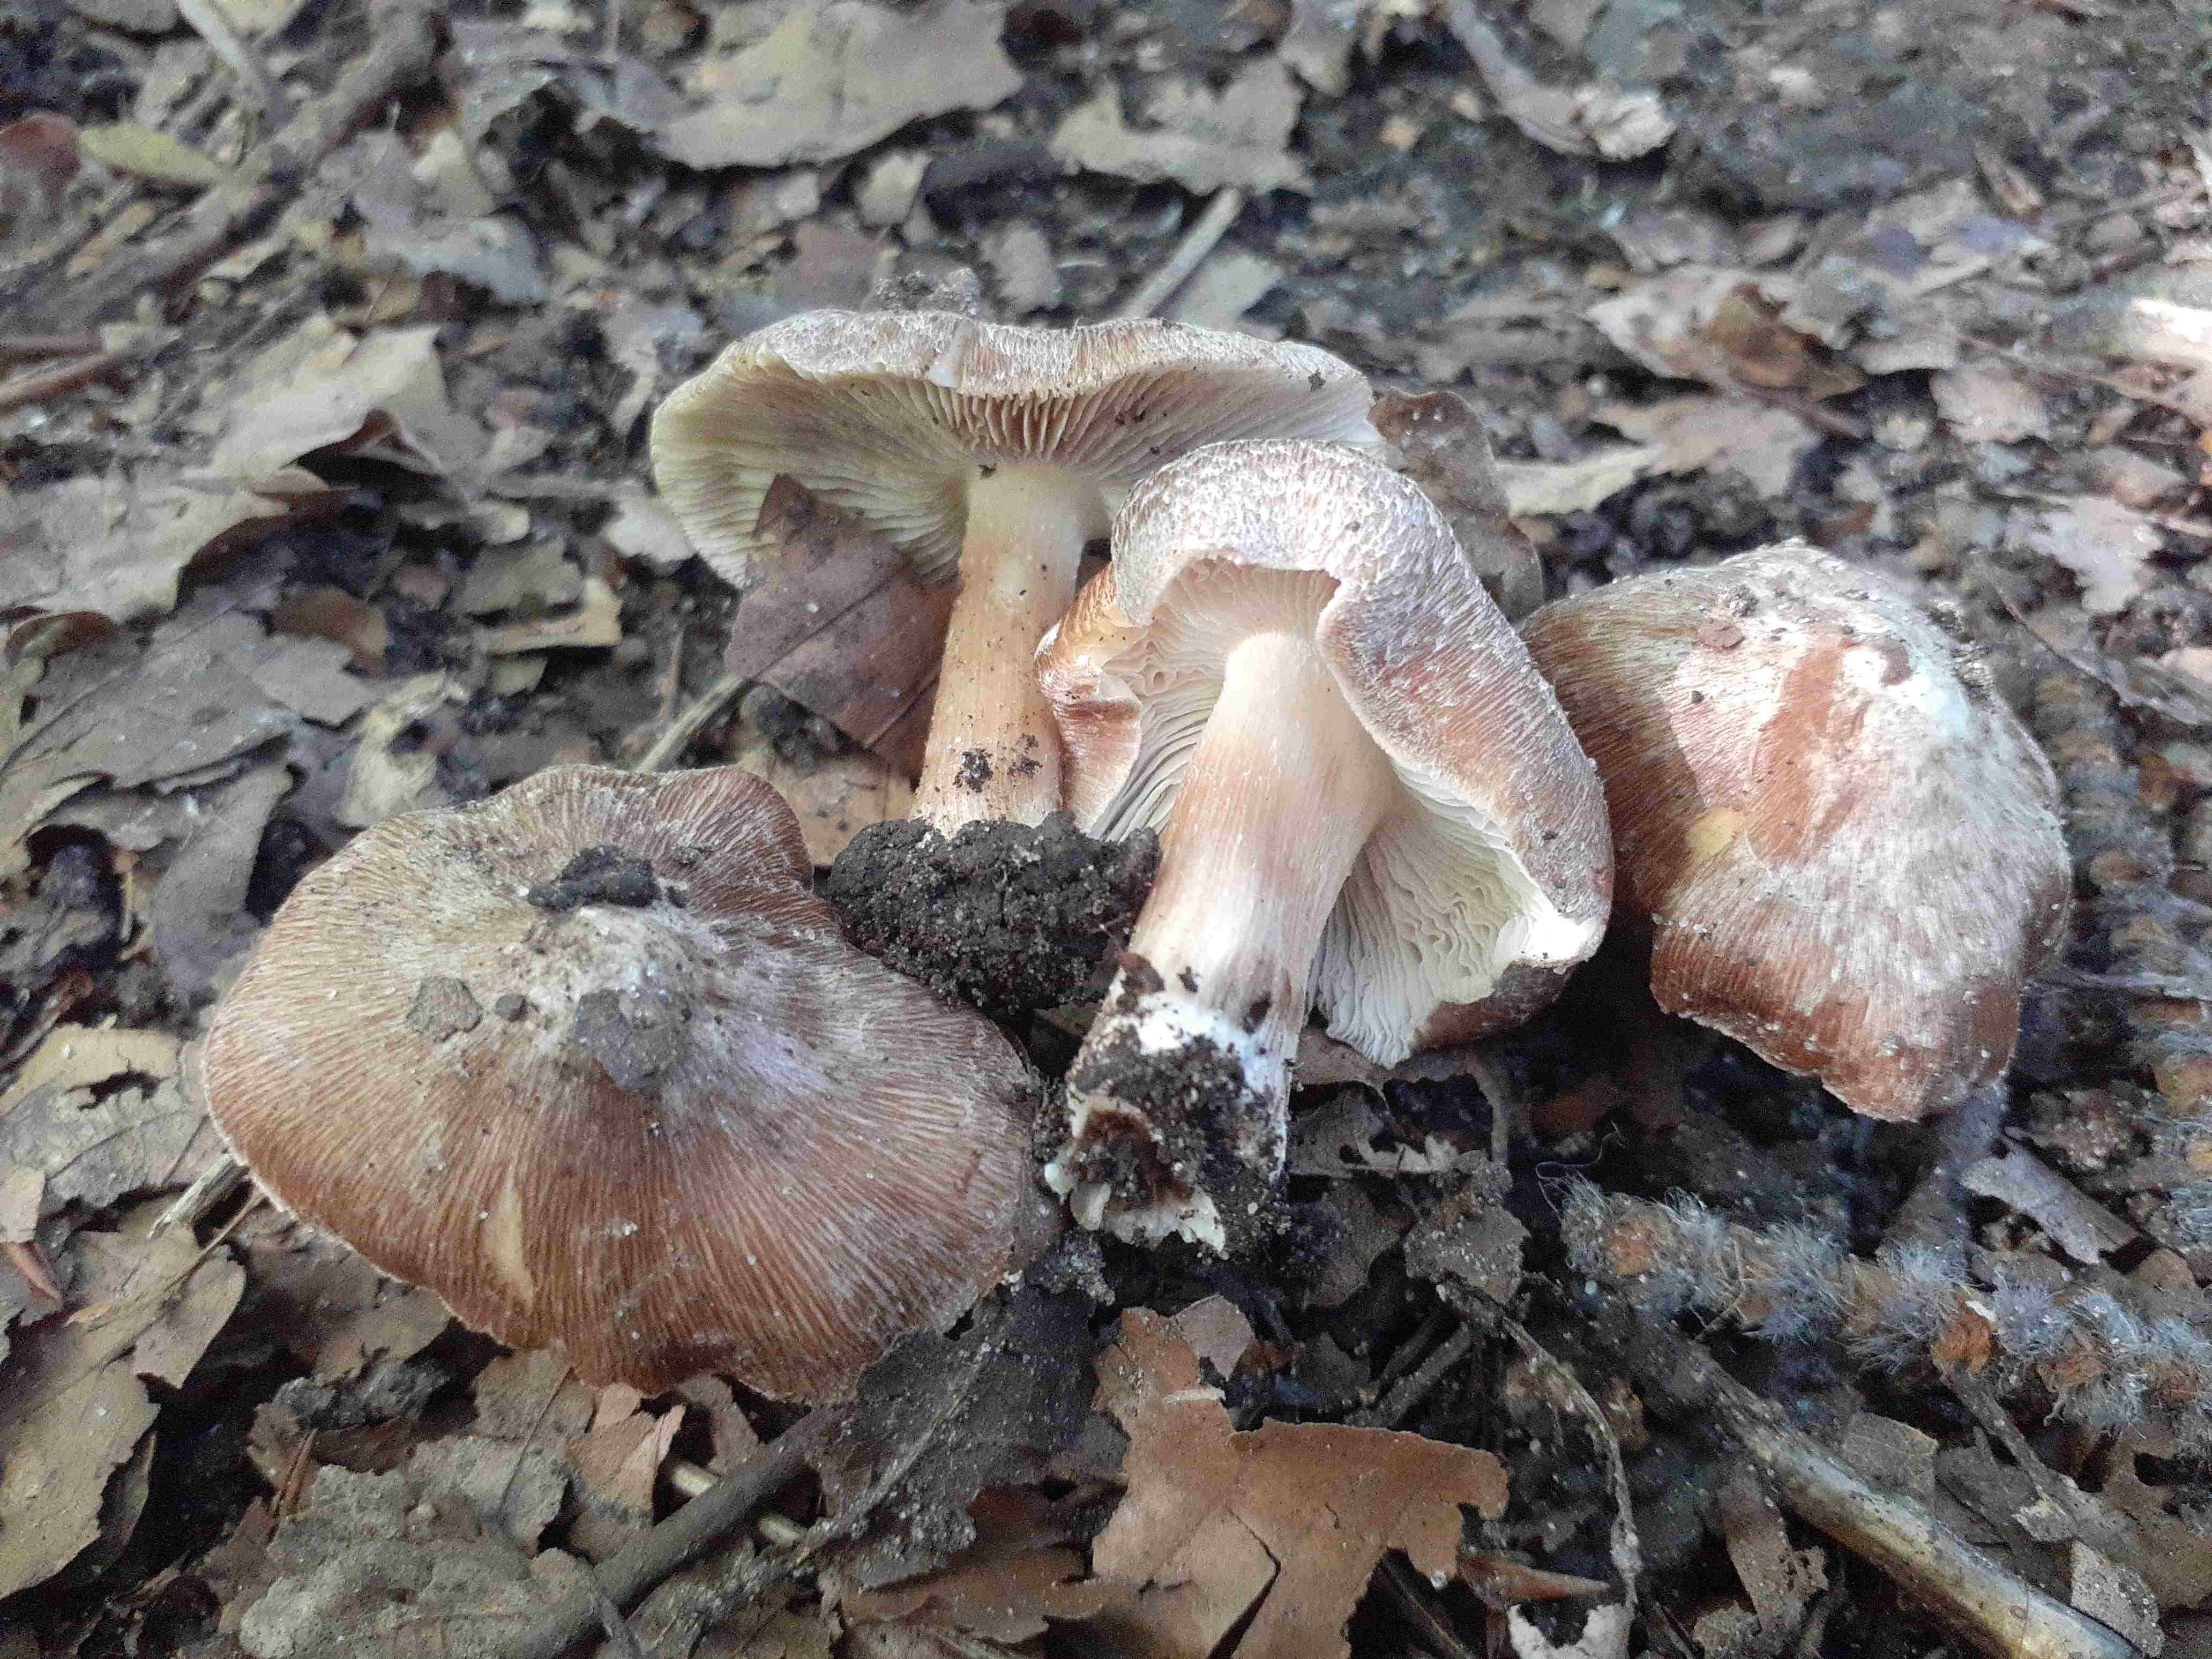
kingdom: Fungi
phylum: Basidiomycota
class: Agaricomycetes
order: Agaricales
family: Inocybaceae
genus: Inosperma
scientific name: Inosperma maculatum
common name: plettet trævlhat
